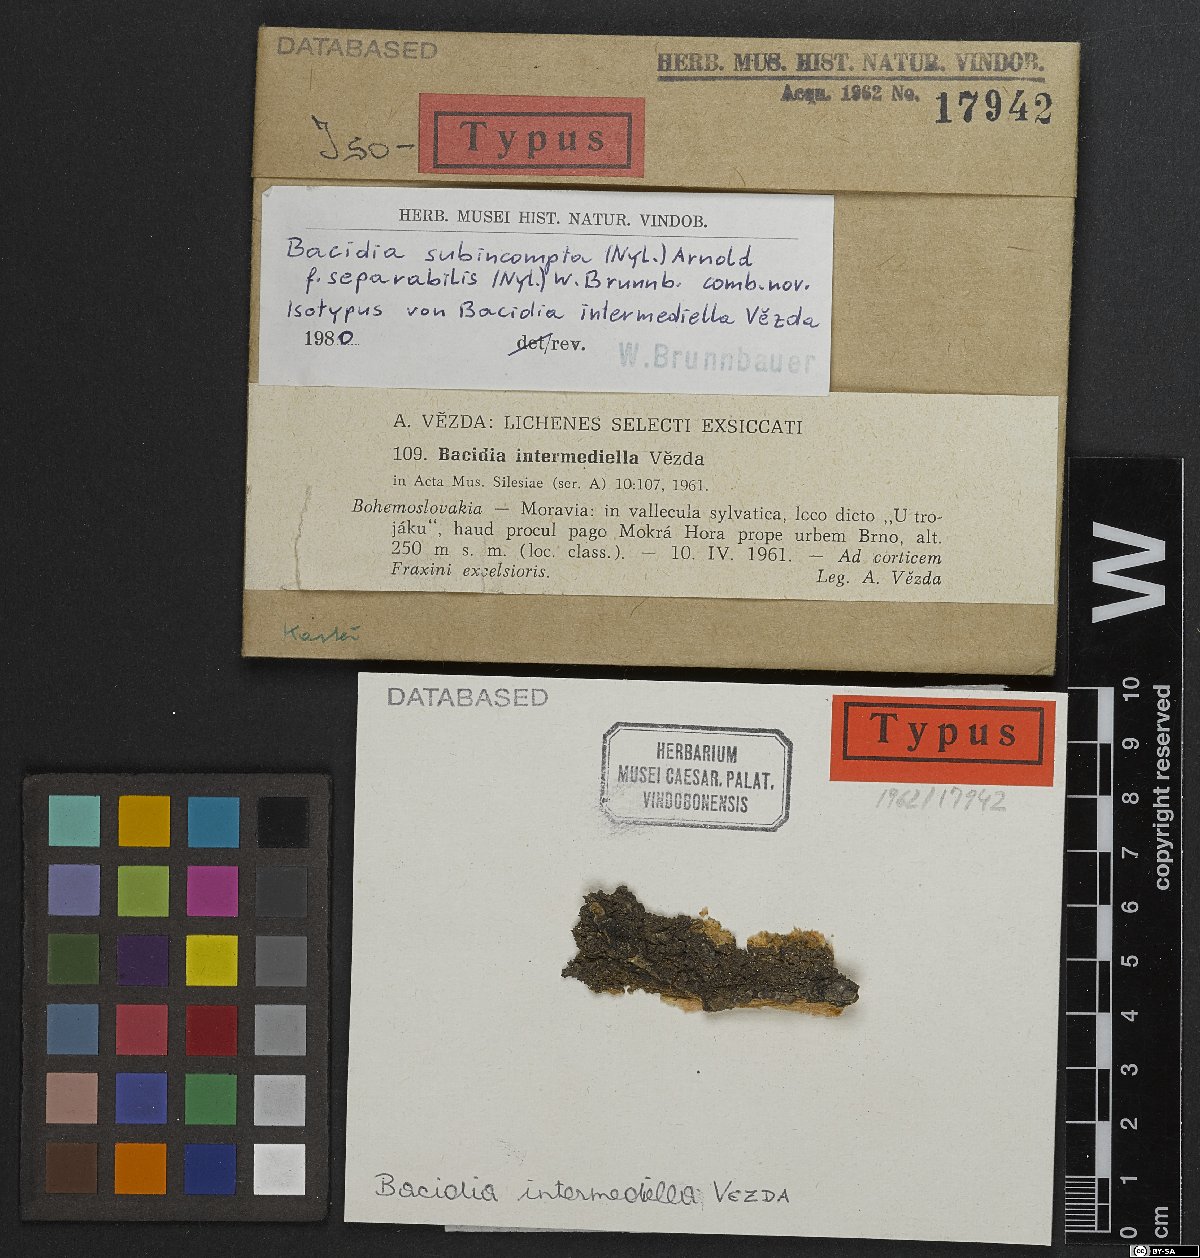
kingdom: Fungi
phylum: Ascomycota
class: Lecanoromycetes
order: Lecanorales
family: Ramalinaceae
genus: Bacidia
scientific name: Bacidia intermediella
